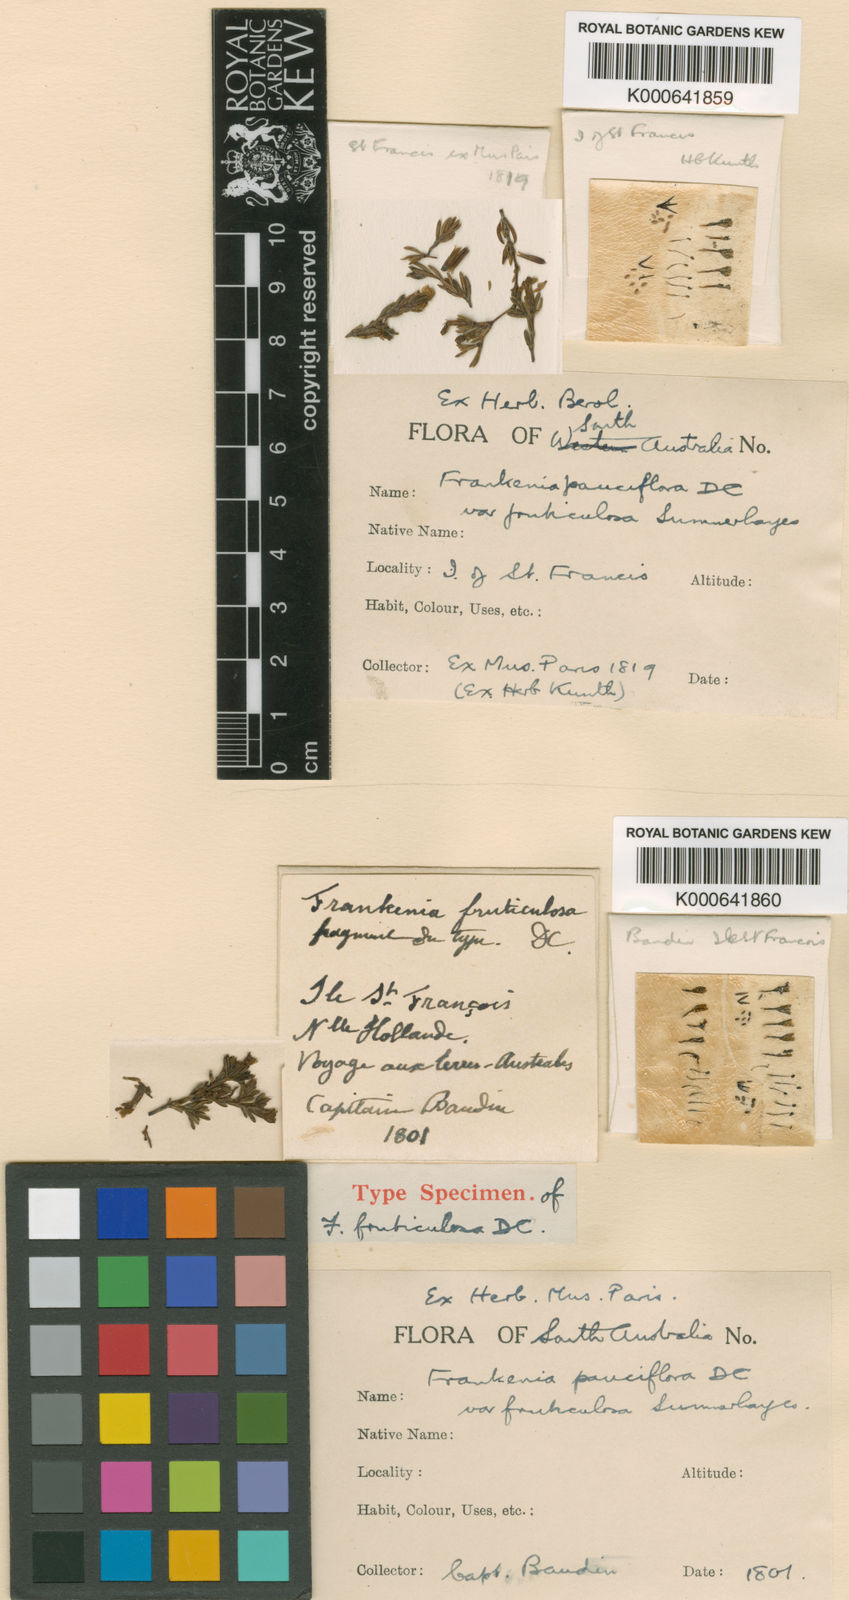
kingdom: Plantae
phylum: Tracheophyta
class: Magnoliopsida
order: Caryophyllales
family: Frankeniaceae
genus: Frankenia
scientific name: Frankenia pauciflora
